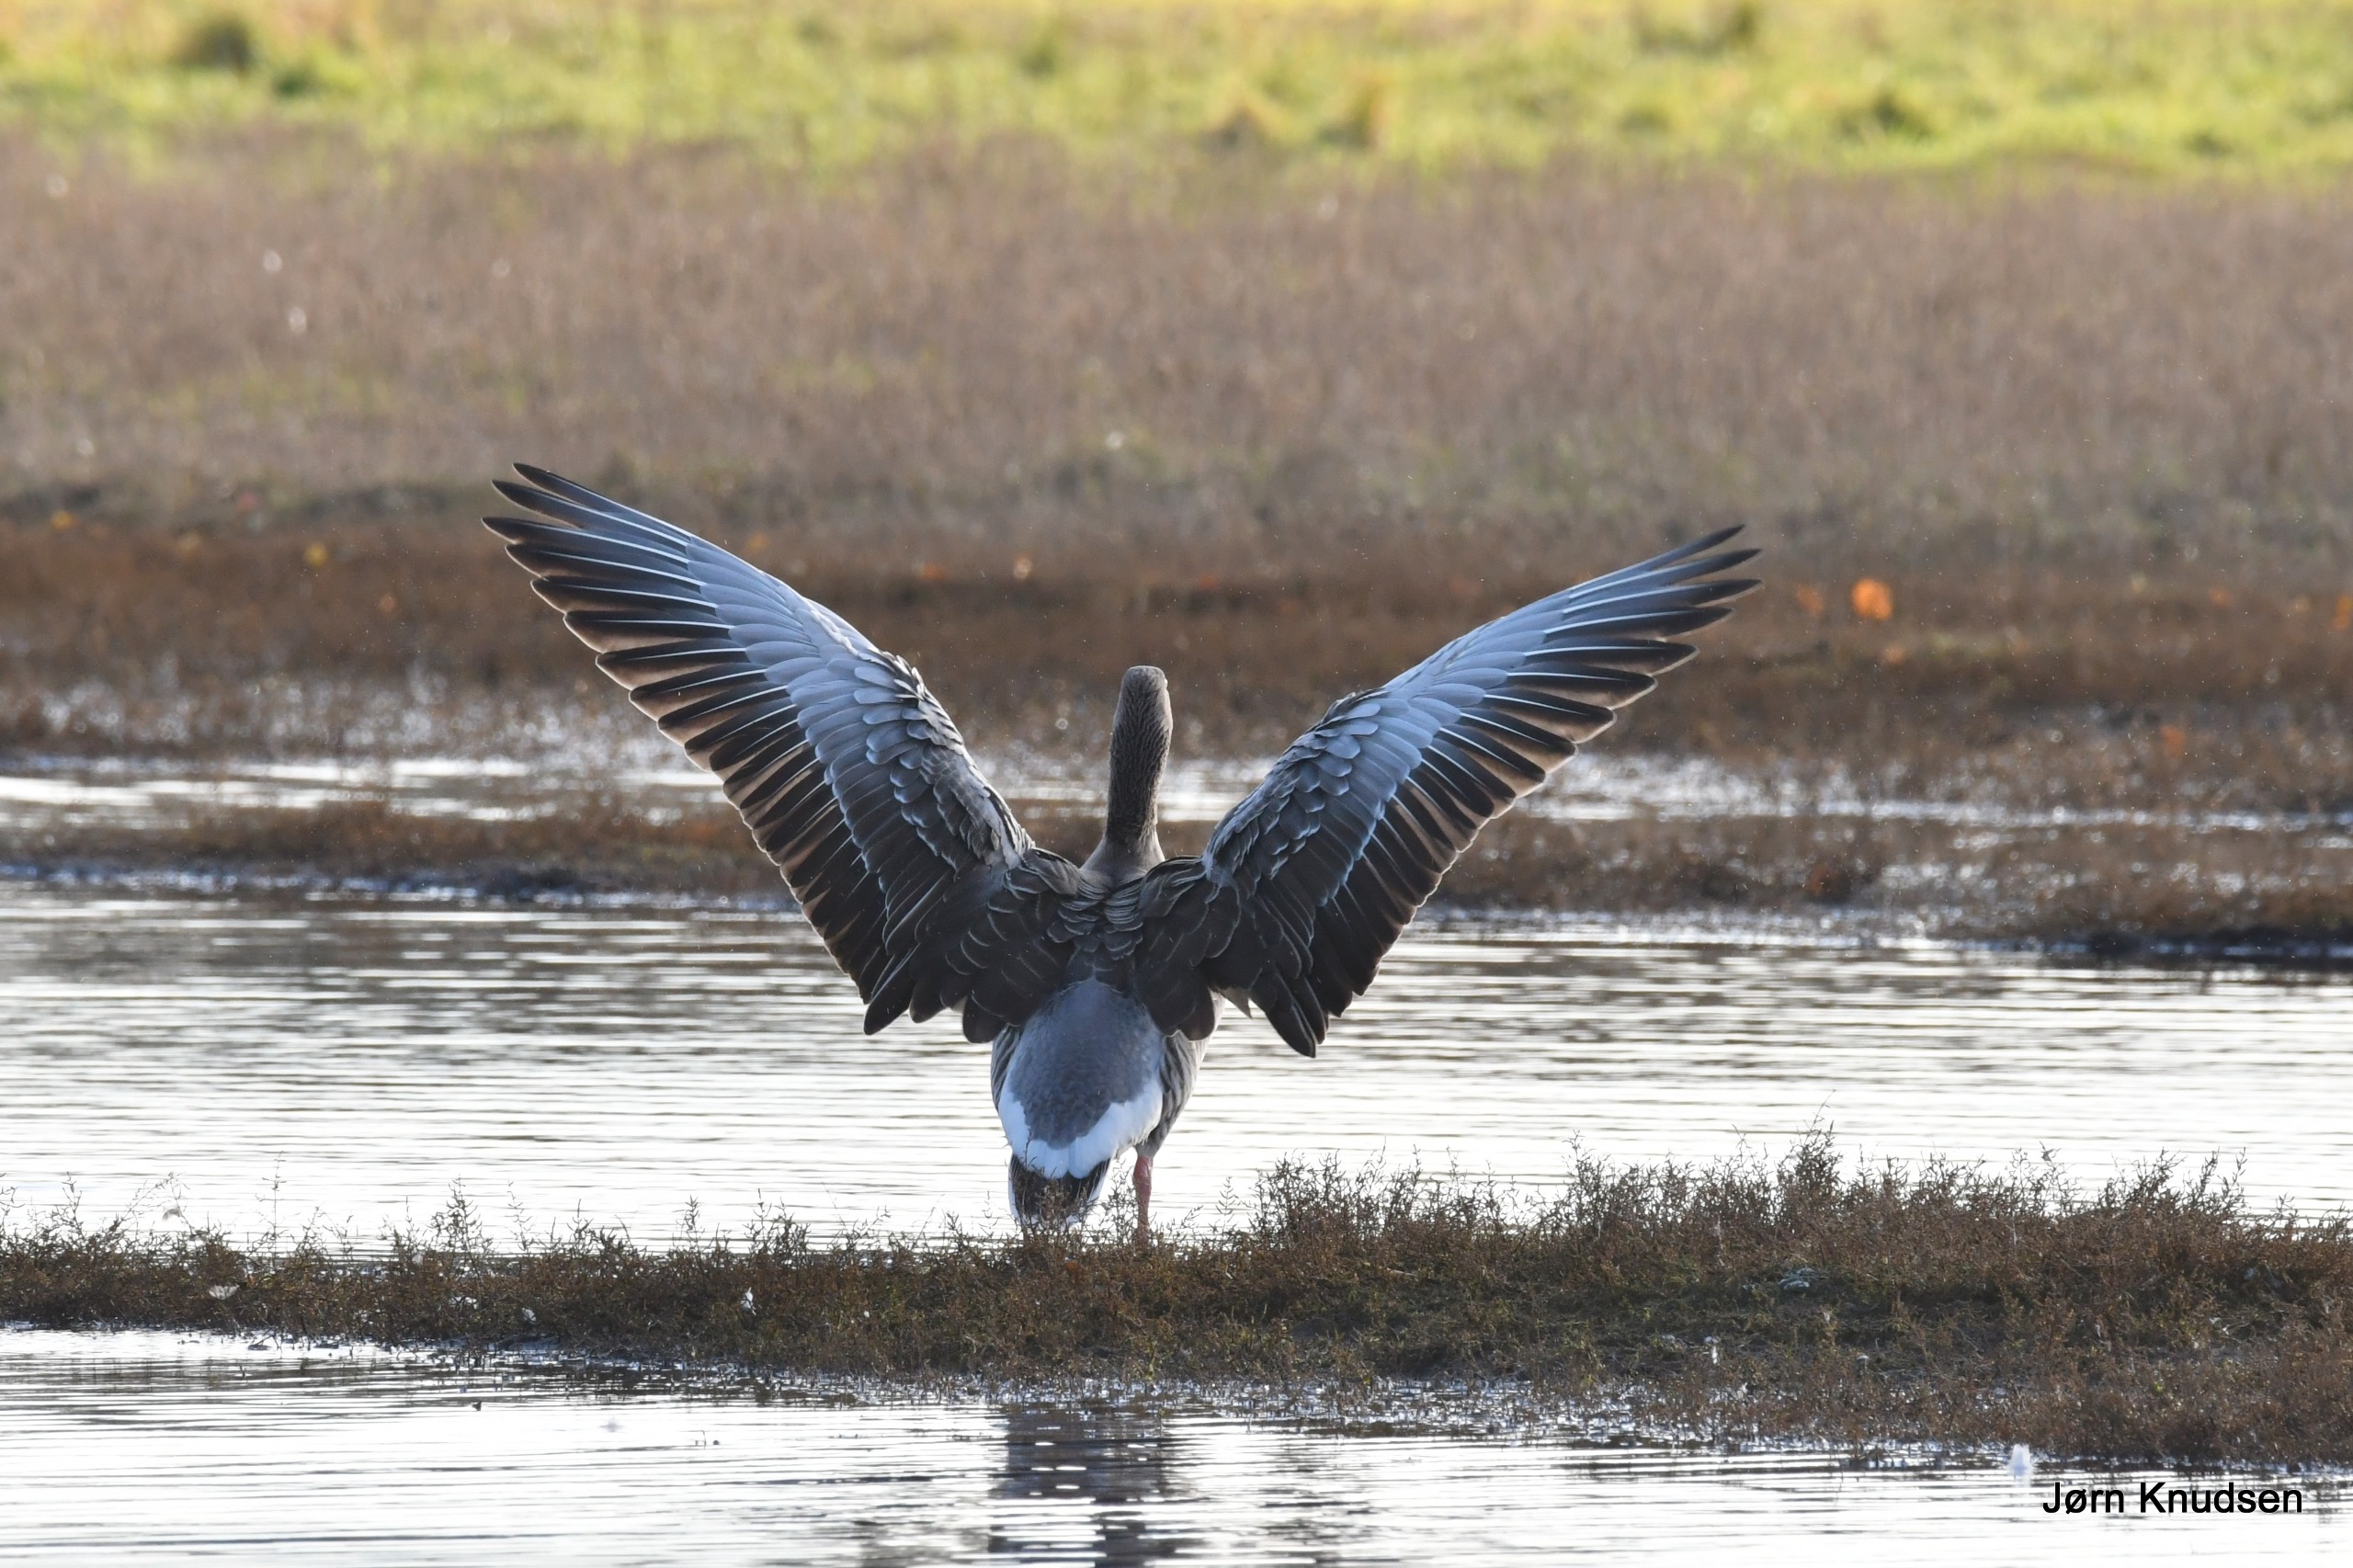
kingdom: Animalia
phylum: Chordata
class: Aves
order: Anseriformes
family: Anatidae
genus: Anser
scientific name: Anser anser
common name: Grågås
